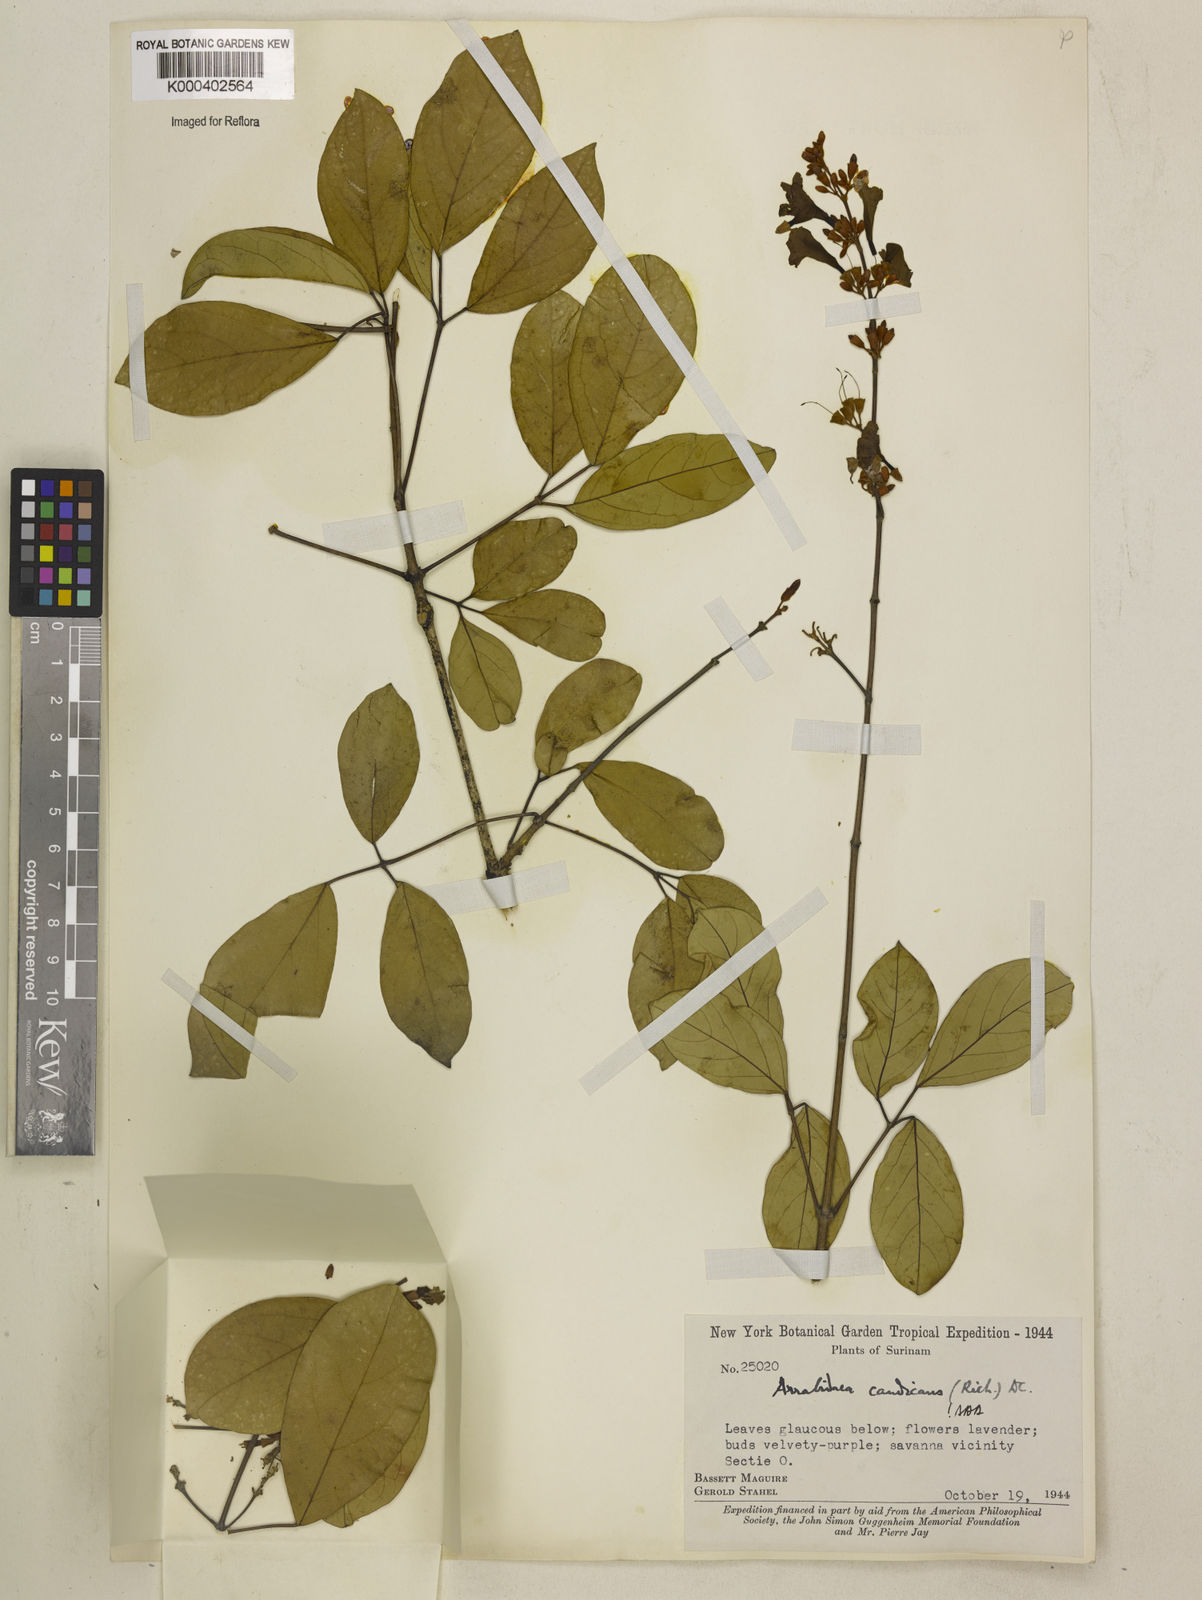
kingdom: Plantae
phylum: Tracheophyta
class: Magnoliopsida
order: Lamiales
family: Bignoniaceae
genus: Fridericia
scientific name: Fridericia candicans
